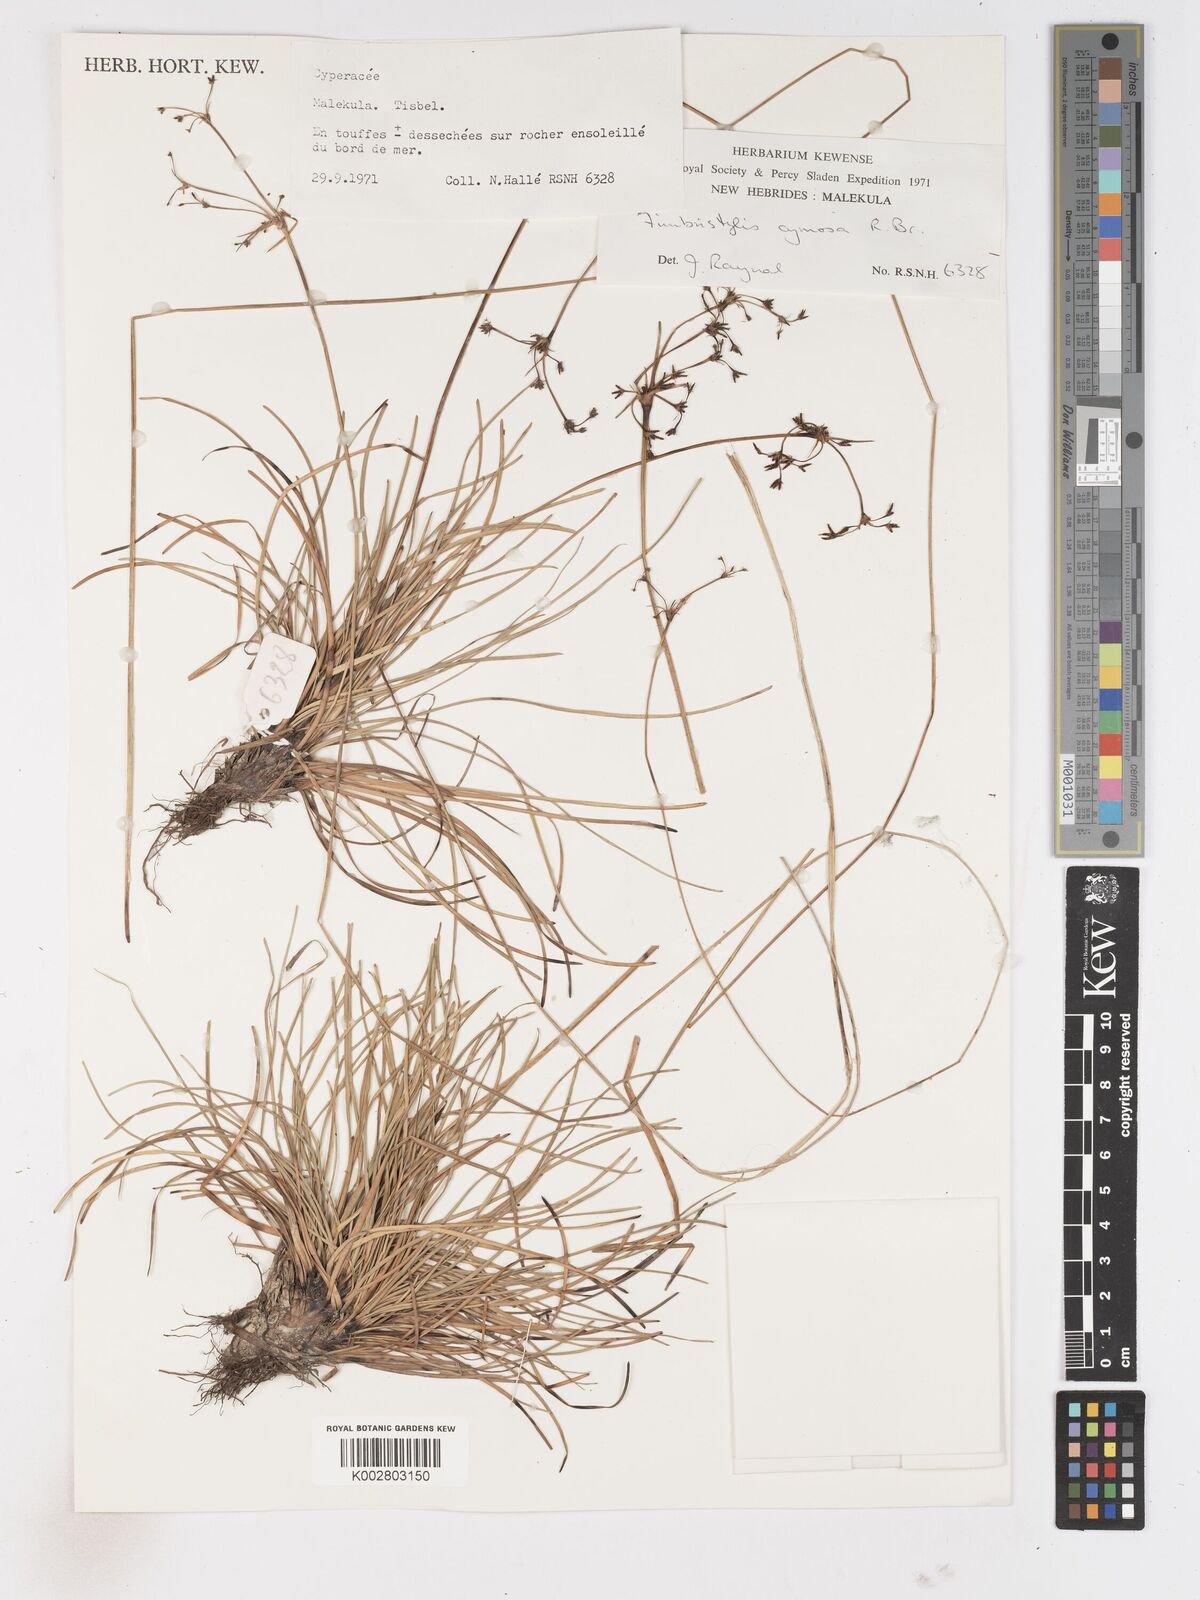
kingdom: Plantae
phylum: Tracheophyta
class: Liliopsida
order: Poales
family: Cyperaceae
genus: Fimbristylis
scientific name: Fimbristylis cymosa
